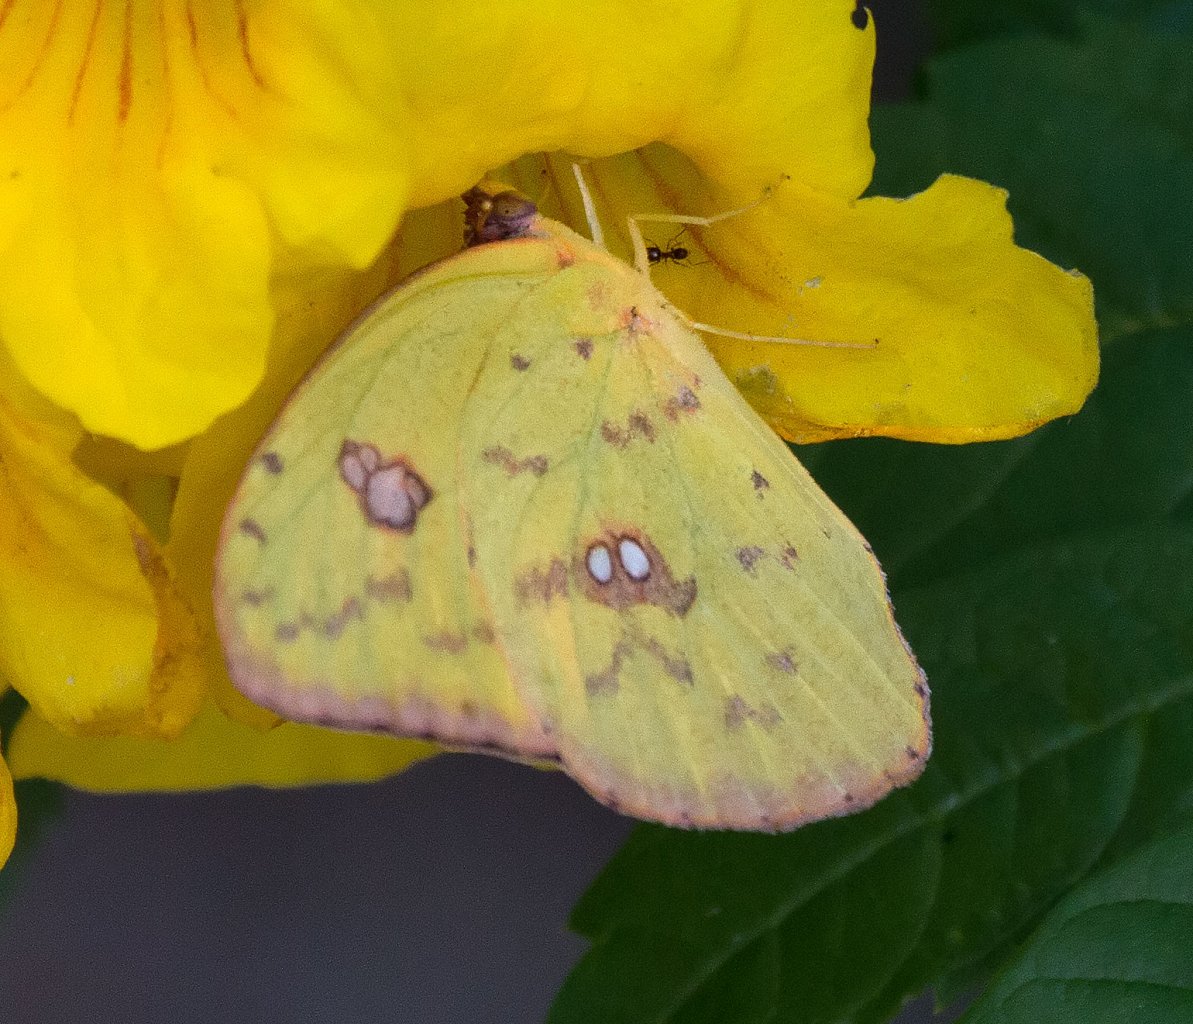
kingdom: Animalia
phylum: Arthropoda
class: Insecta
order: Lepidoptera
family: Pieridae
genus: Phoebis
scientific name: Phoebis sennae
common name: Cloudless Sulphur
